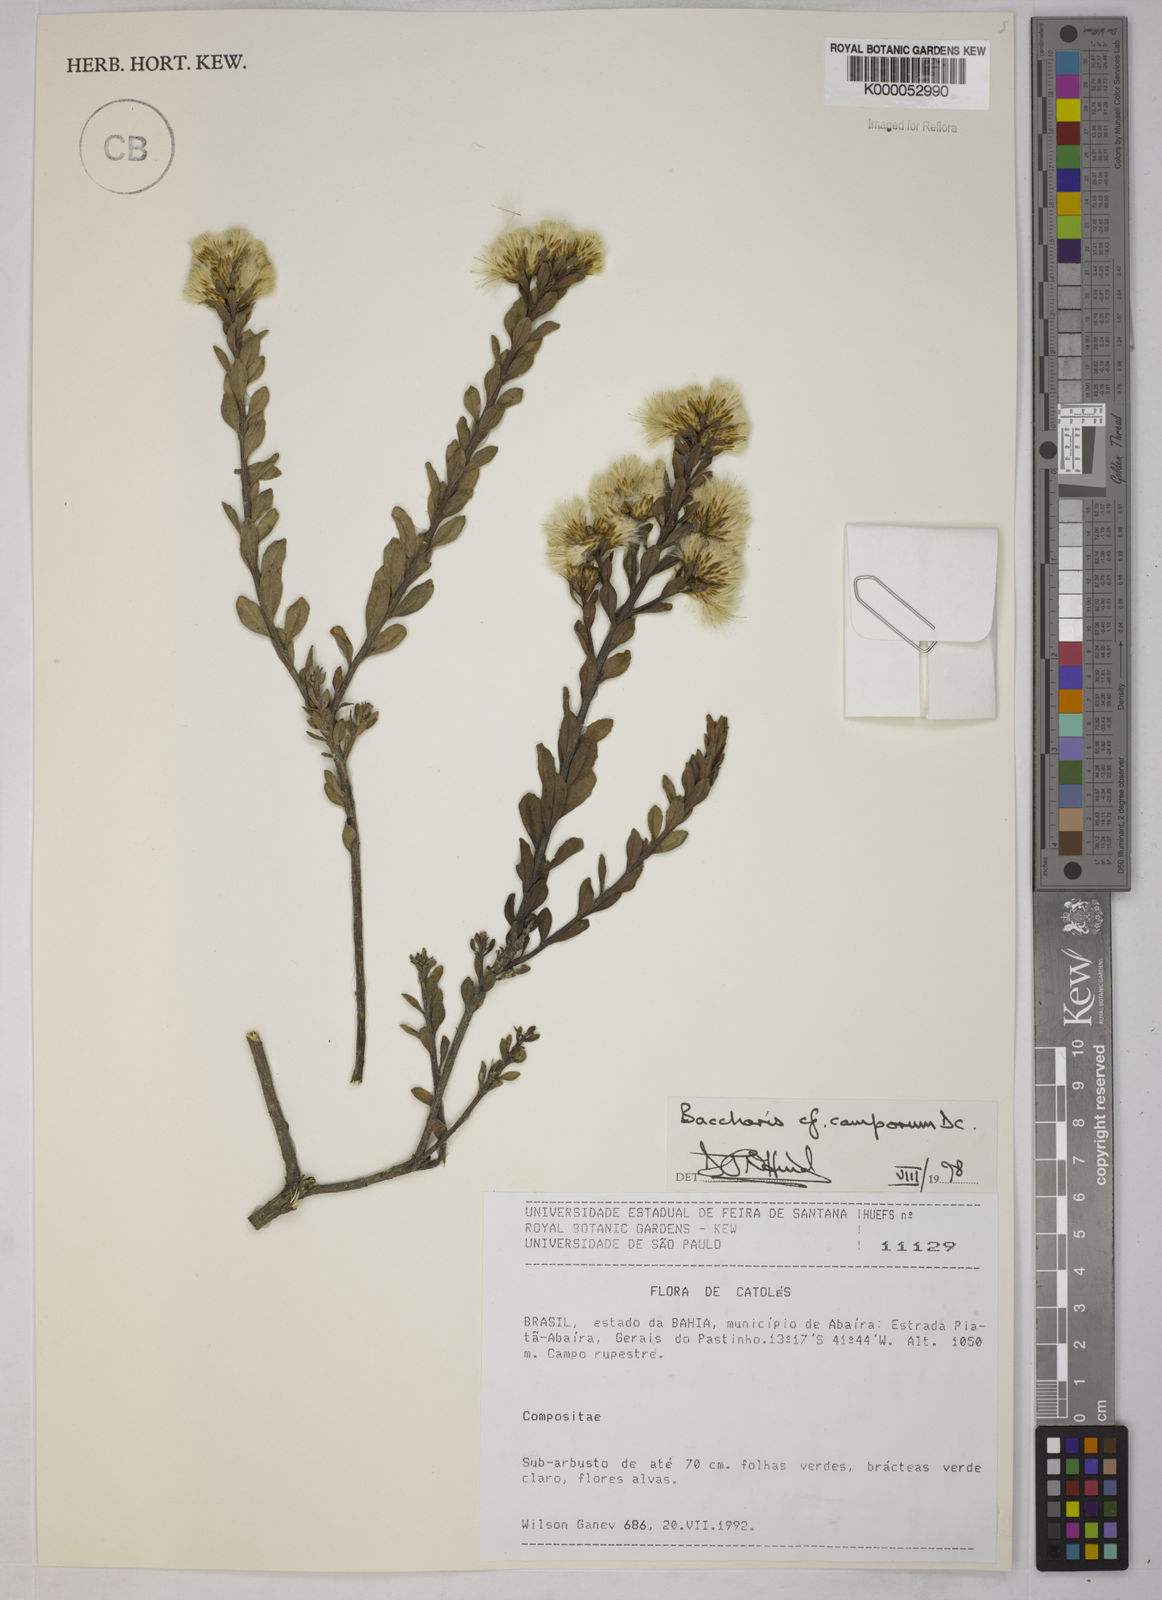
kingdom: Plantae
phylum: Tracheophyta
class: Magnoliopsida
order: Asterales
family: Asteraceae
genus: Baccharis
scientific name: Baccharis camporum
